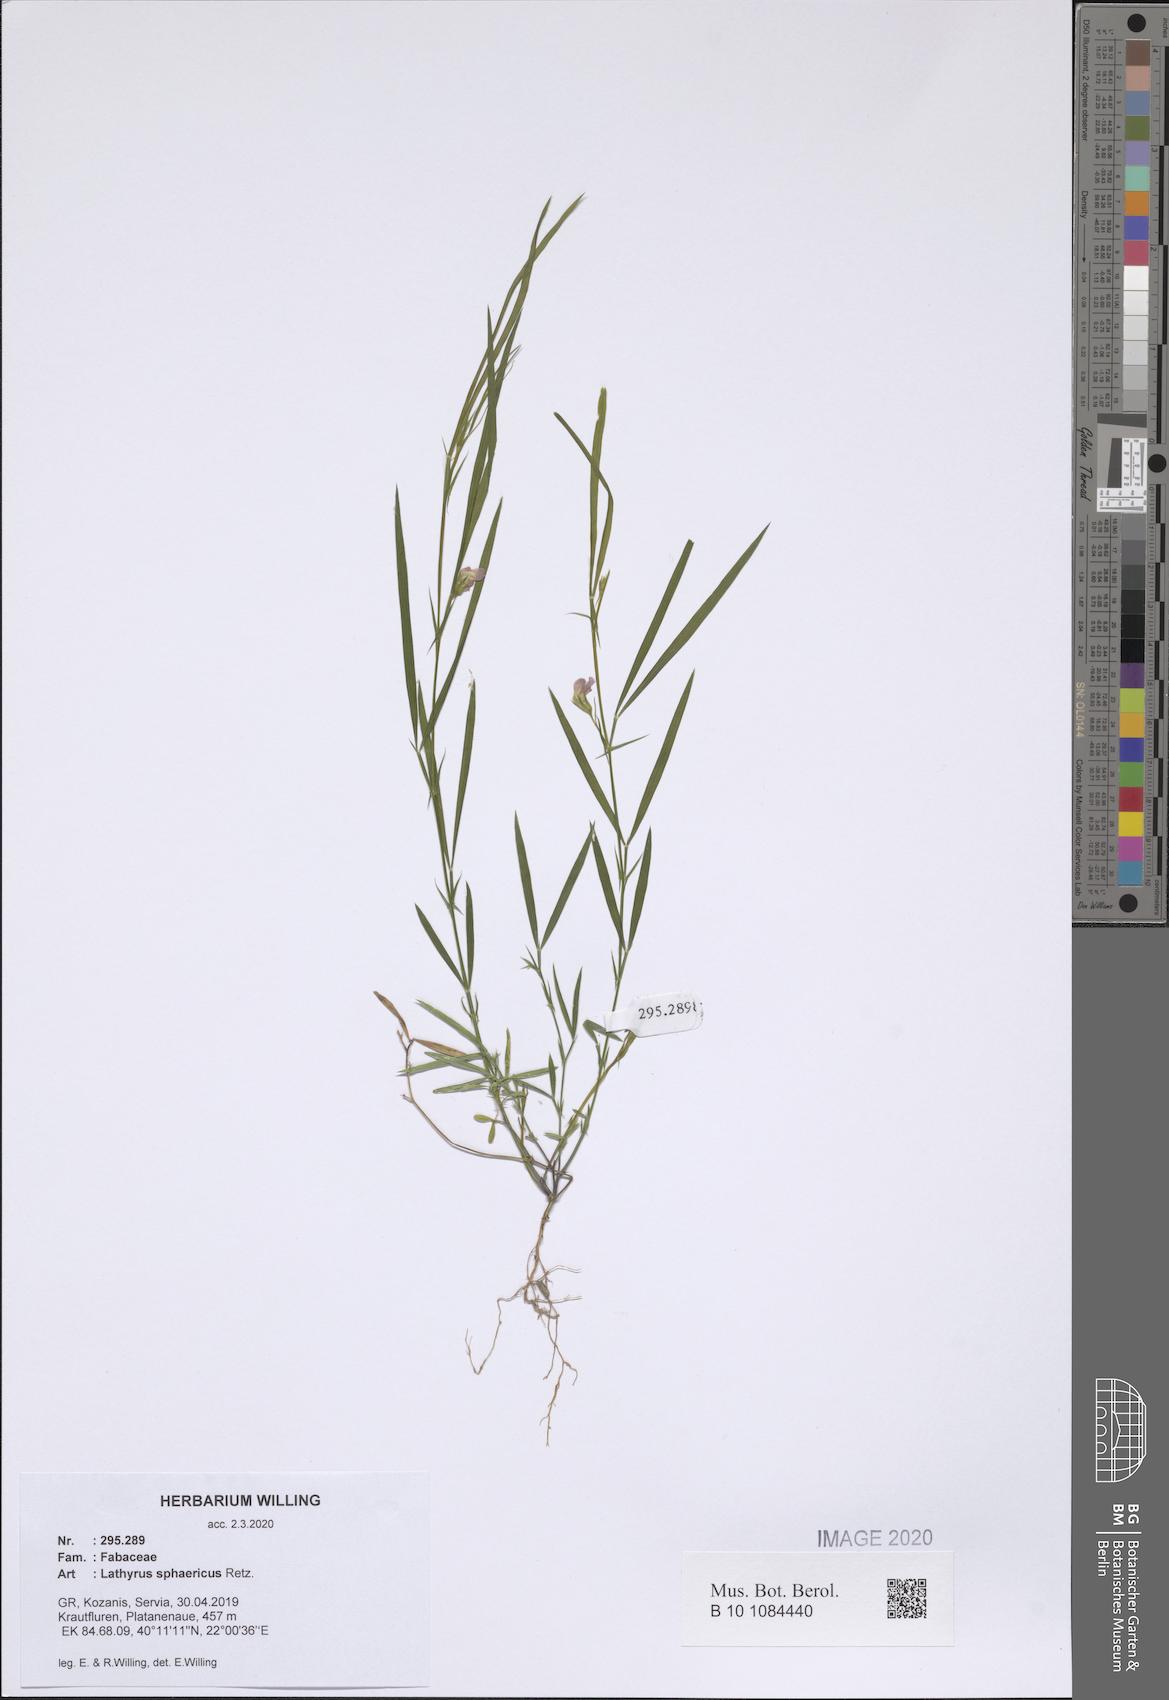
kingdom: Plantae
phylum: Tracheophyta
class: Magnoliopsida
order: Fabales
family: Fabaceae
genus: Lathyrus
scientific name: Lathyrus sphaericus
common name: Grass pea
